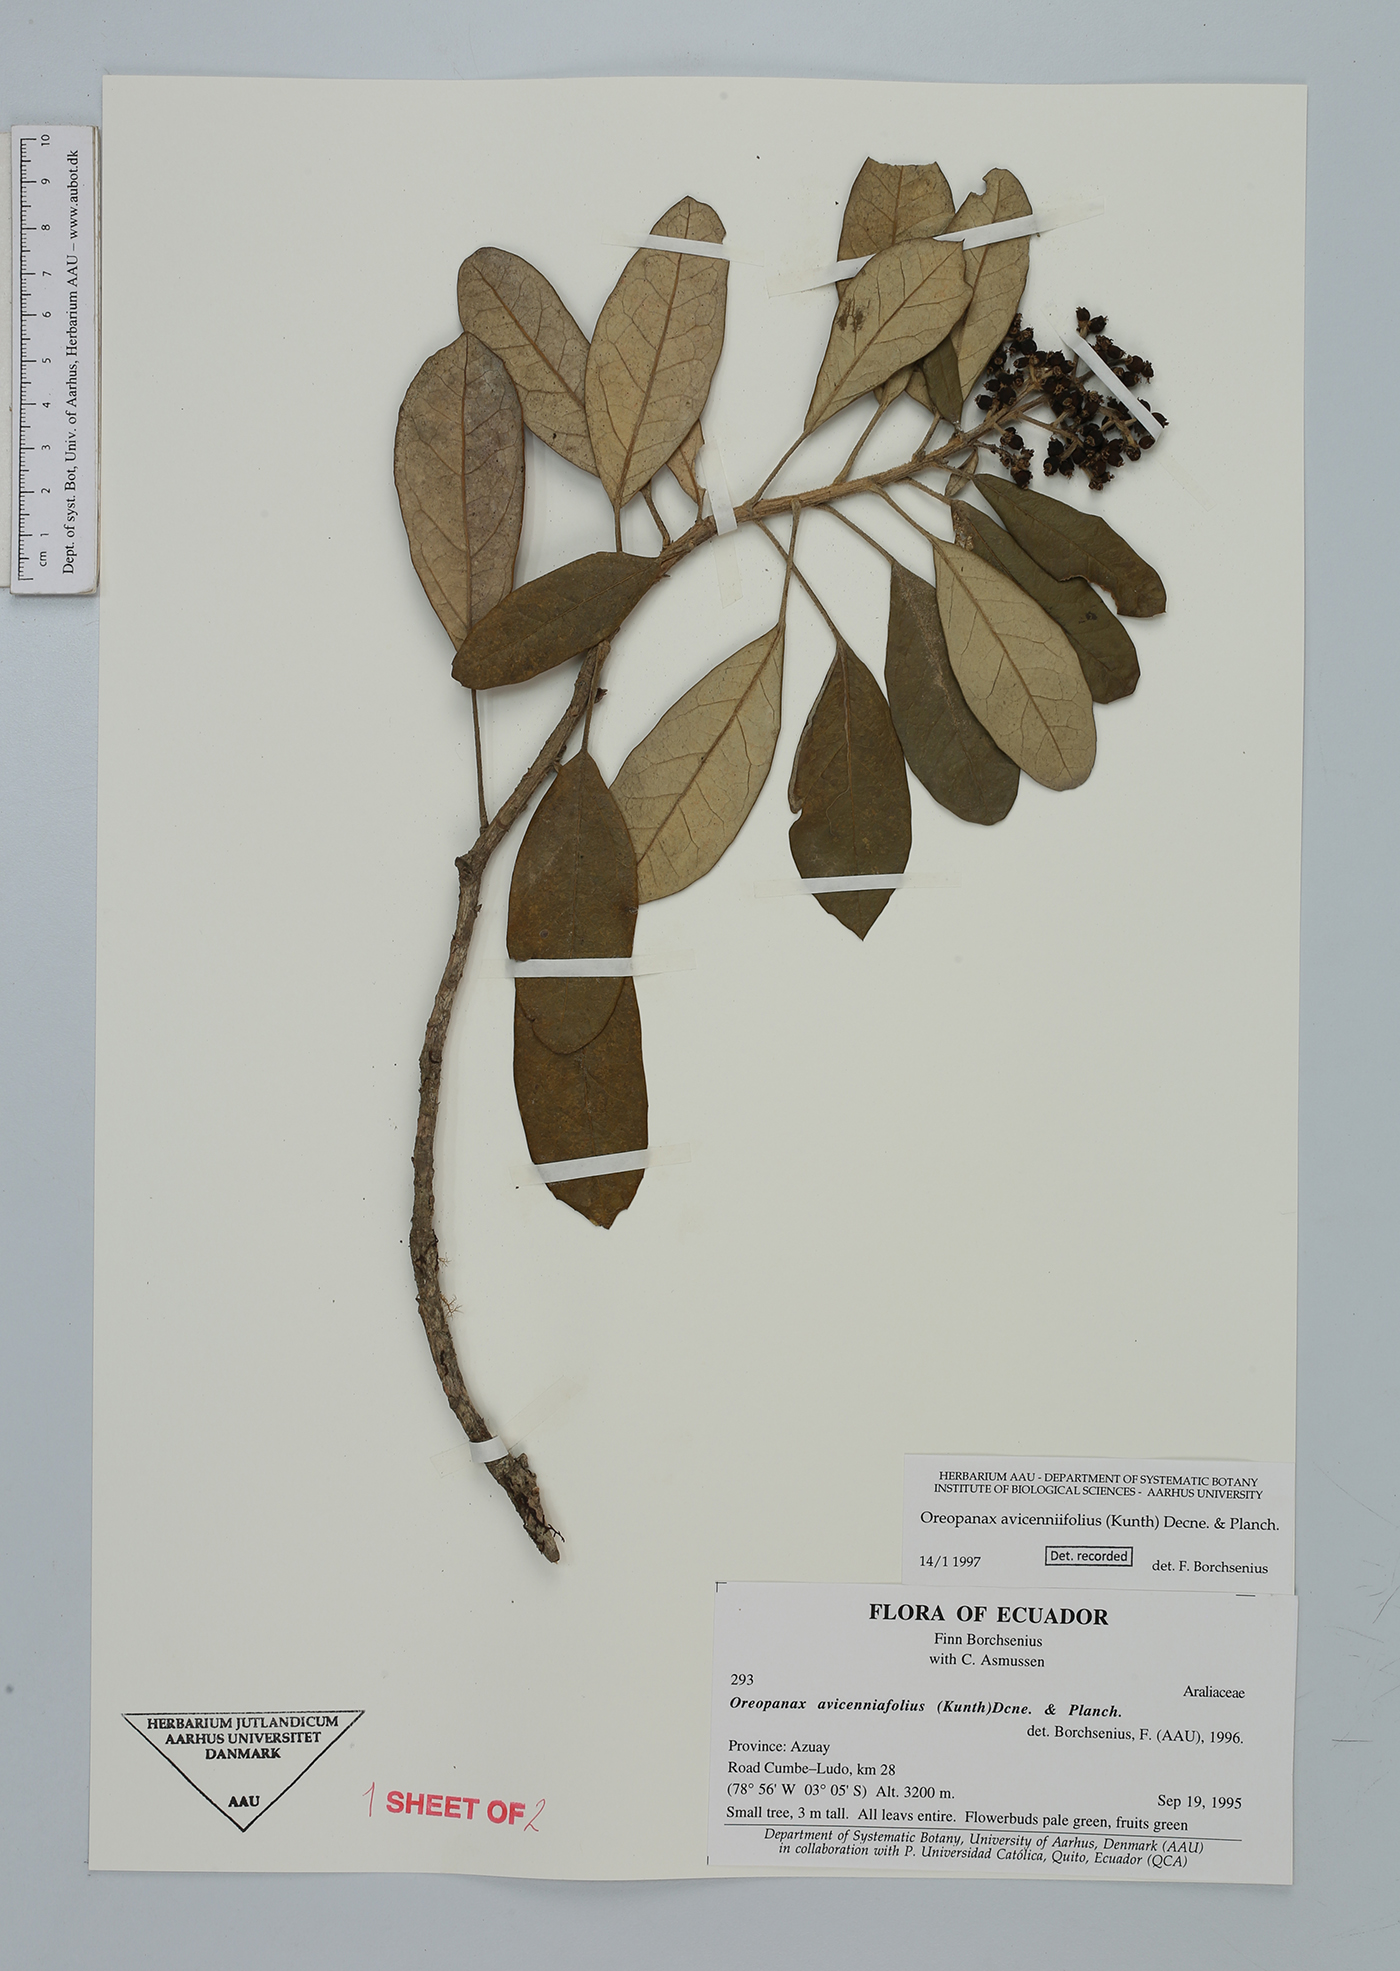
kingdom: Plantae
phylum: Tracheophyta
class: Magnoliopsida
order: Apiales
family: Araliaceae
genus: Oreopanax
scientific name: Oreopanax avicenniifolius
